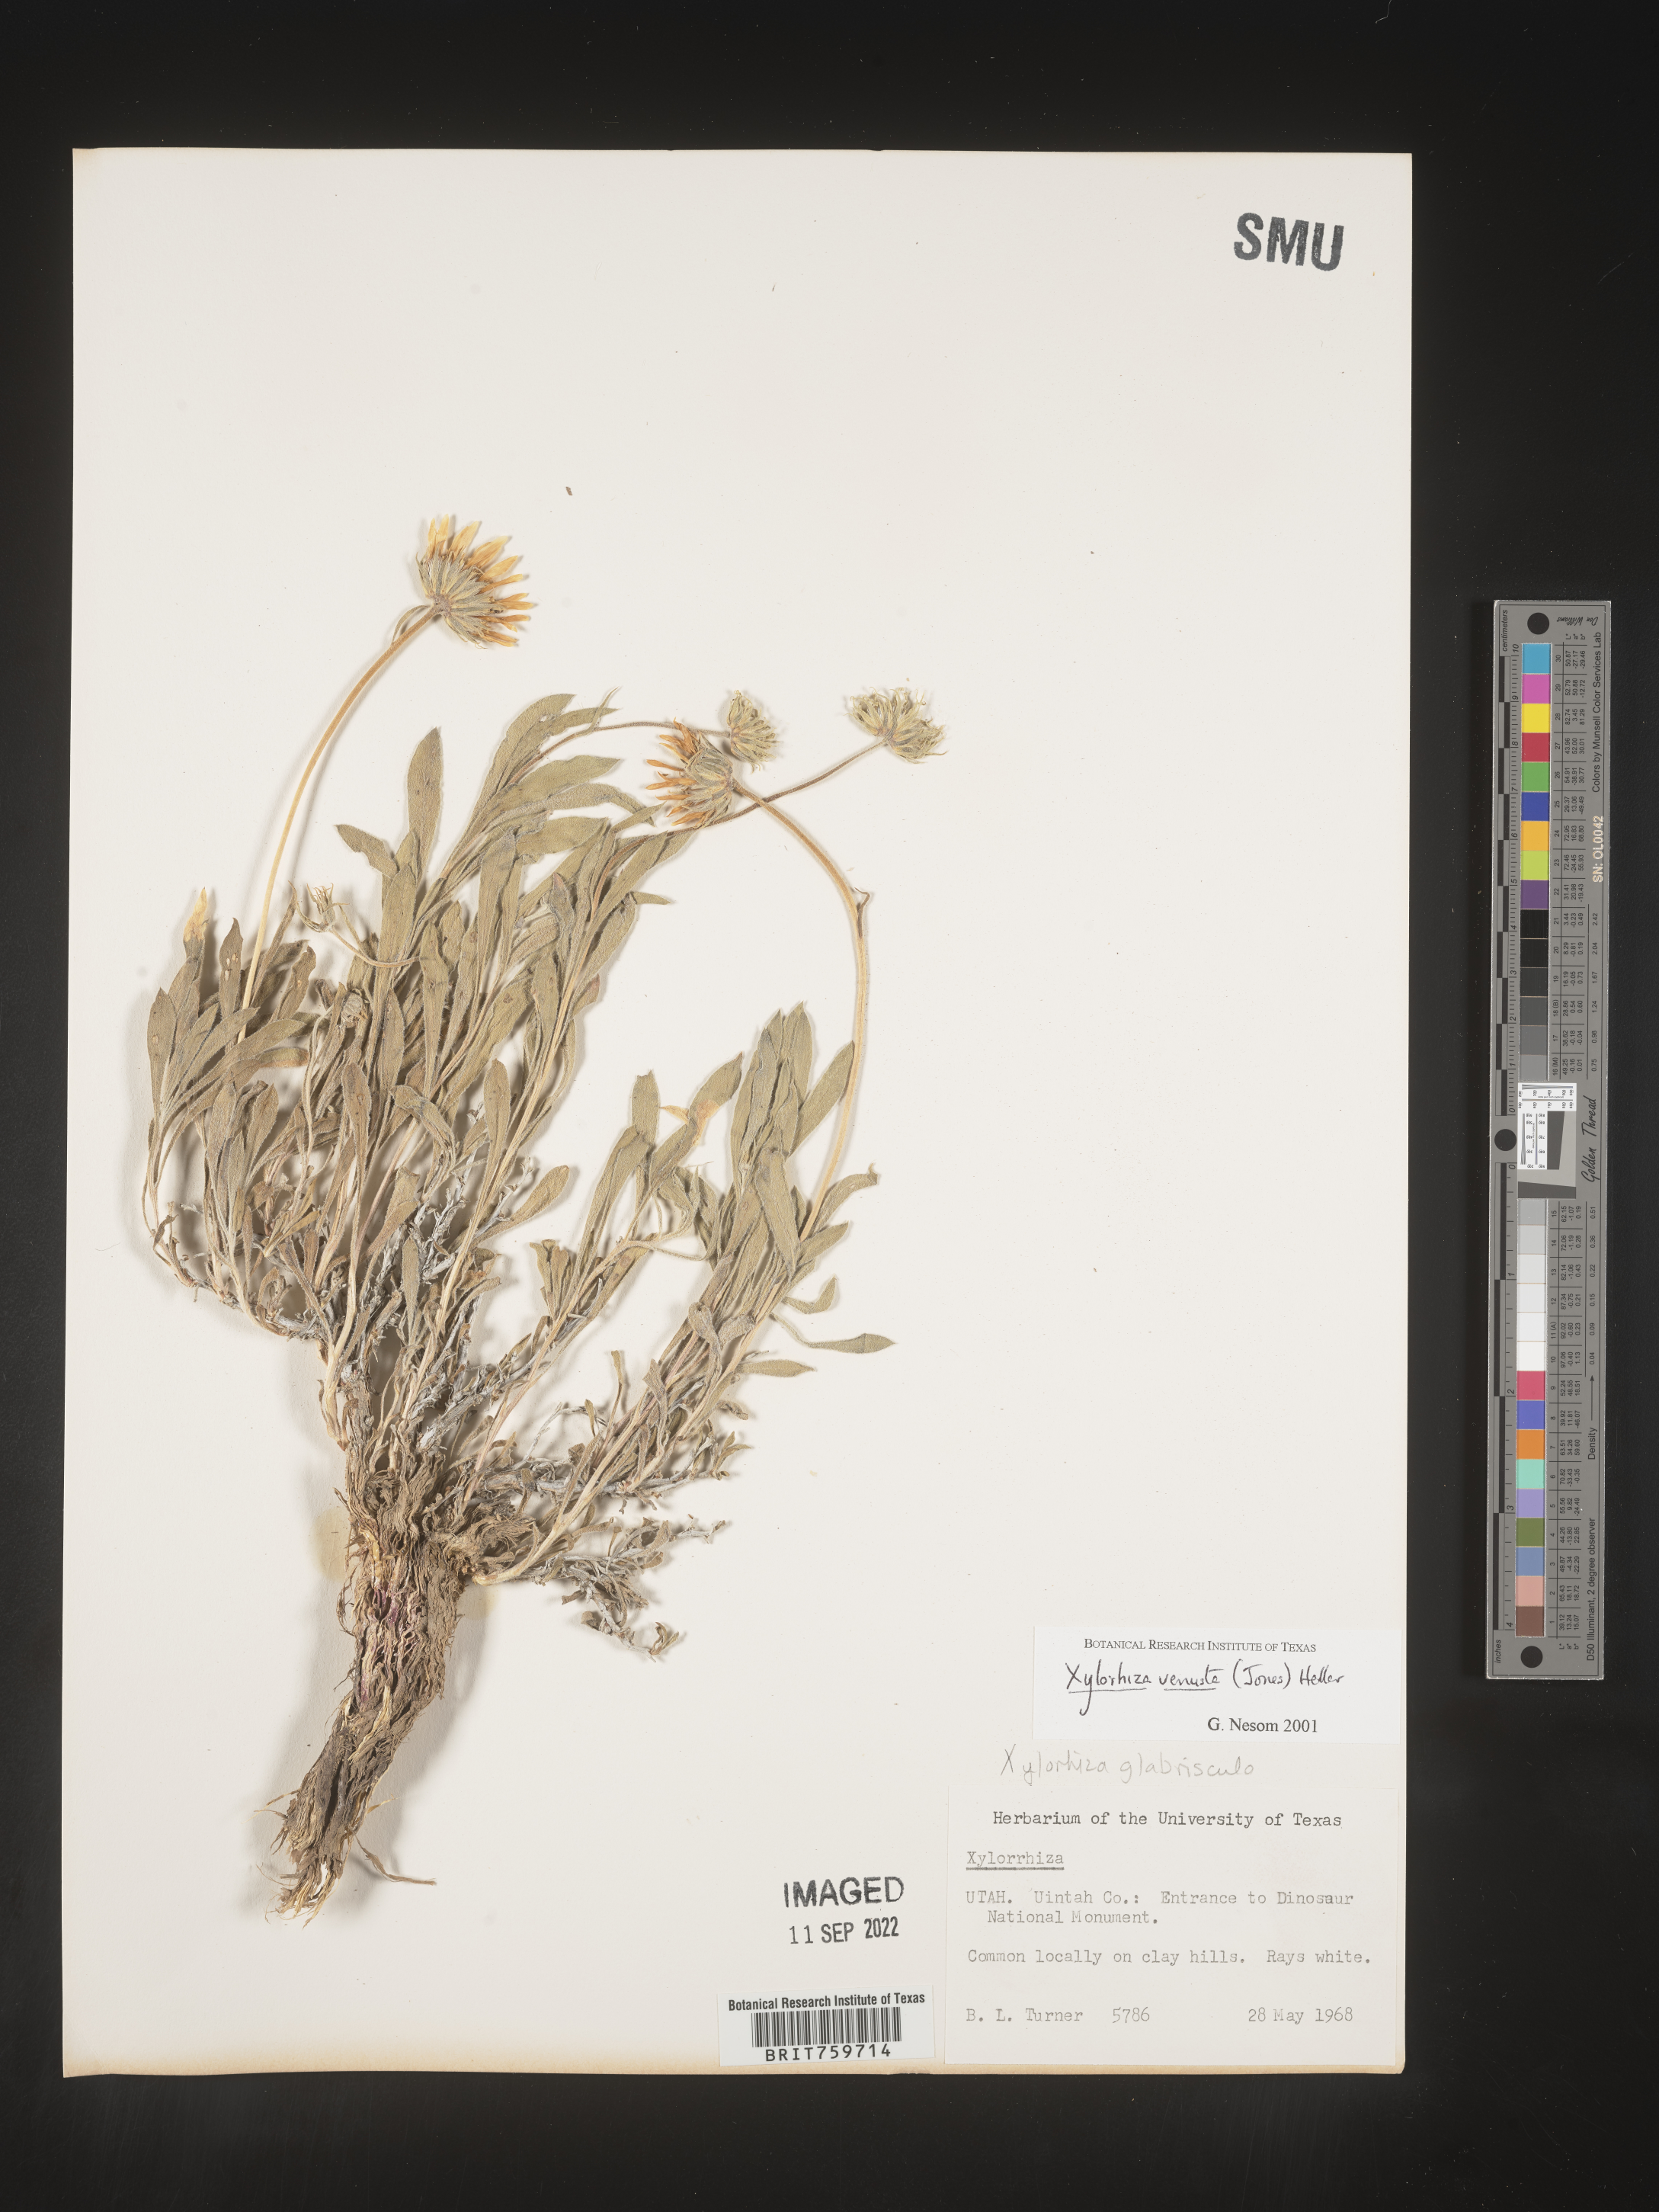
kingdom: Plantae
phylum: Tracheophyta
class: Magnoliopsida
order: Asterales
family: Asteraceae
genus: Xylorhiza
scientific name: Xylorhiza venusta
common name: Cisco woody-aster
